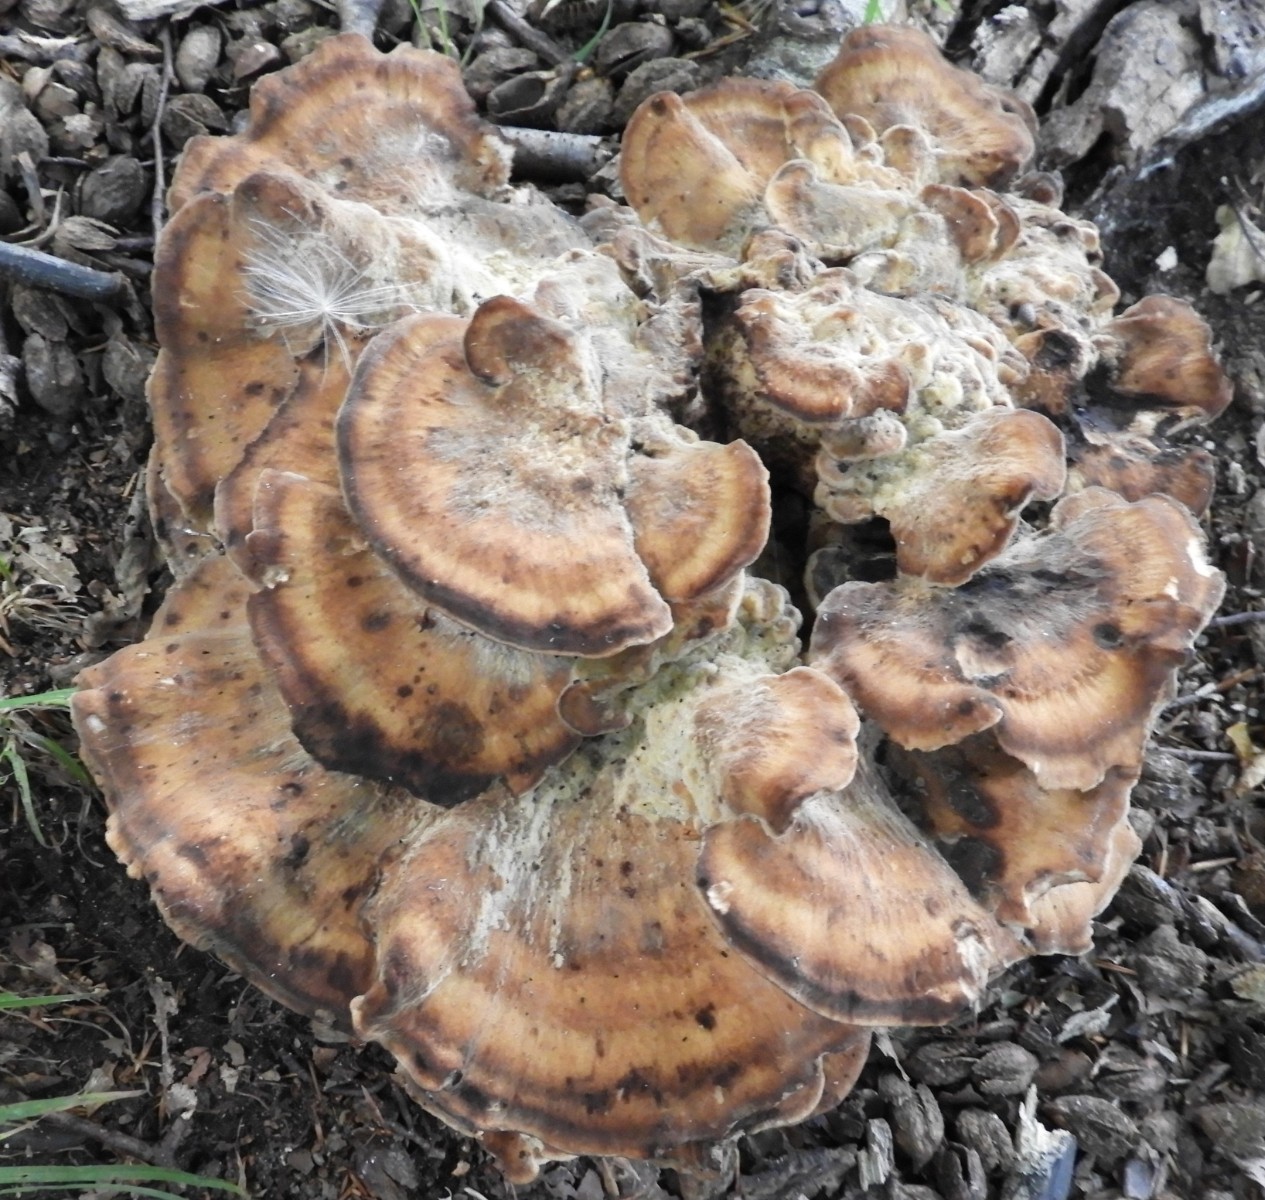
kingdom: Fungi
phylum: Basidiomycota
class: Agaricomycetes
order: Polyporales
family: Meripilaceae
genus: Meripilus
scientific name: Meripilus giganteus
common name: kæmpeporesvamp
